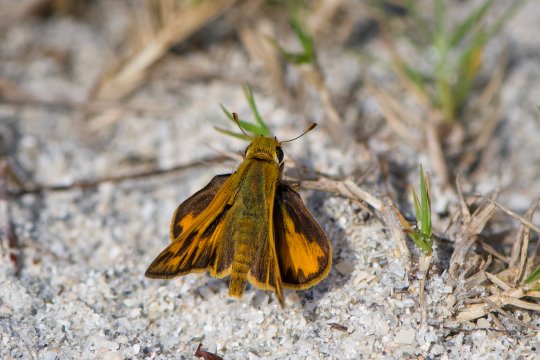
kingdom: Animalia
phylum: Arthropoda
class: Insecta
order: Lepidoptera
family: Hesperiidae
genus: Hylephila
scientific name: Hylephila phyleus
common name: Fiery Skipper
